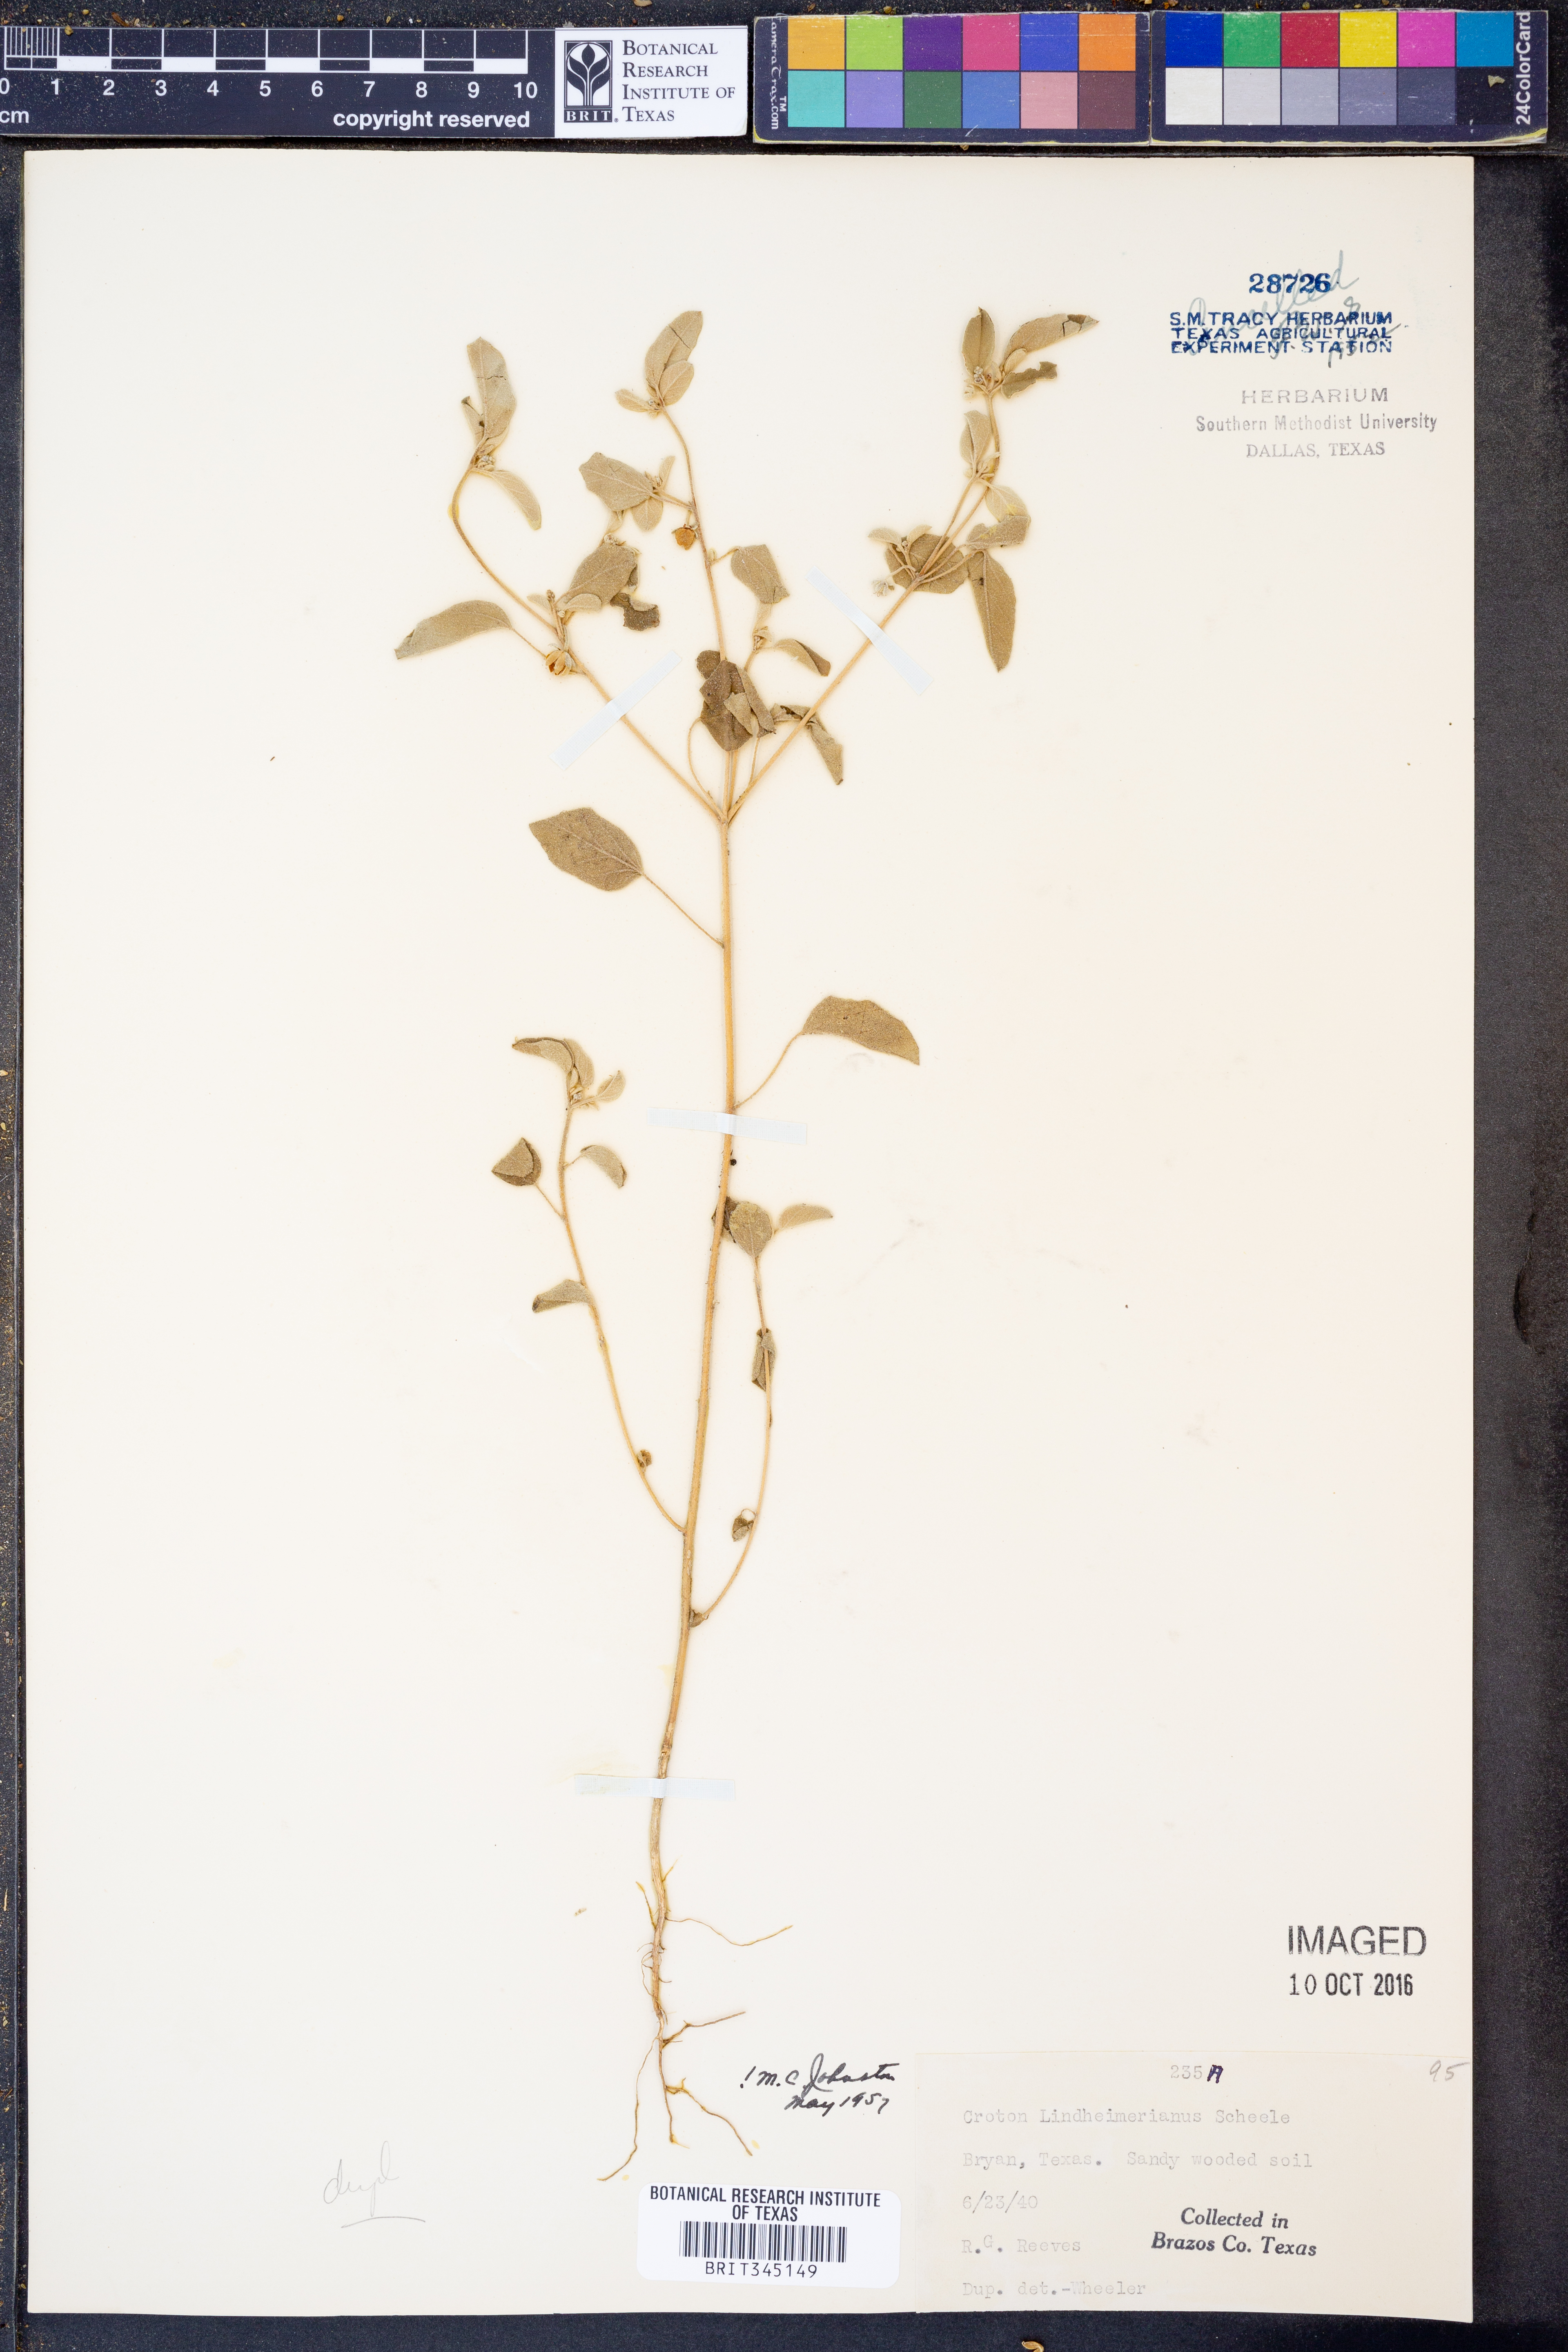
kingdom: Plantae
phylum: Tracheophyta
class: Magnoliopsida
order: Malpighiales
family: Euphorbiaceae
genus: Croton
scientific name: Croton lindheimerianus
